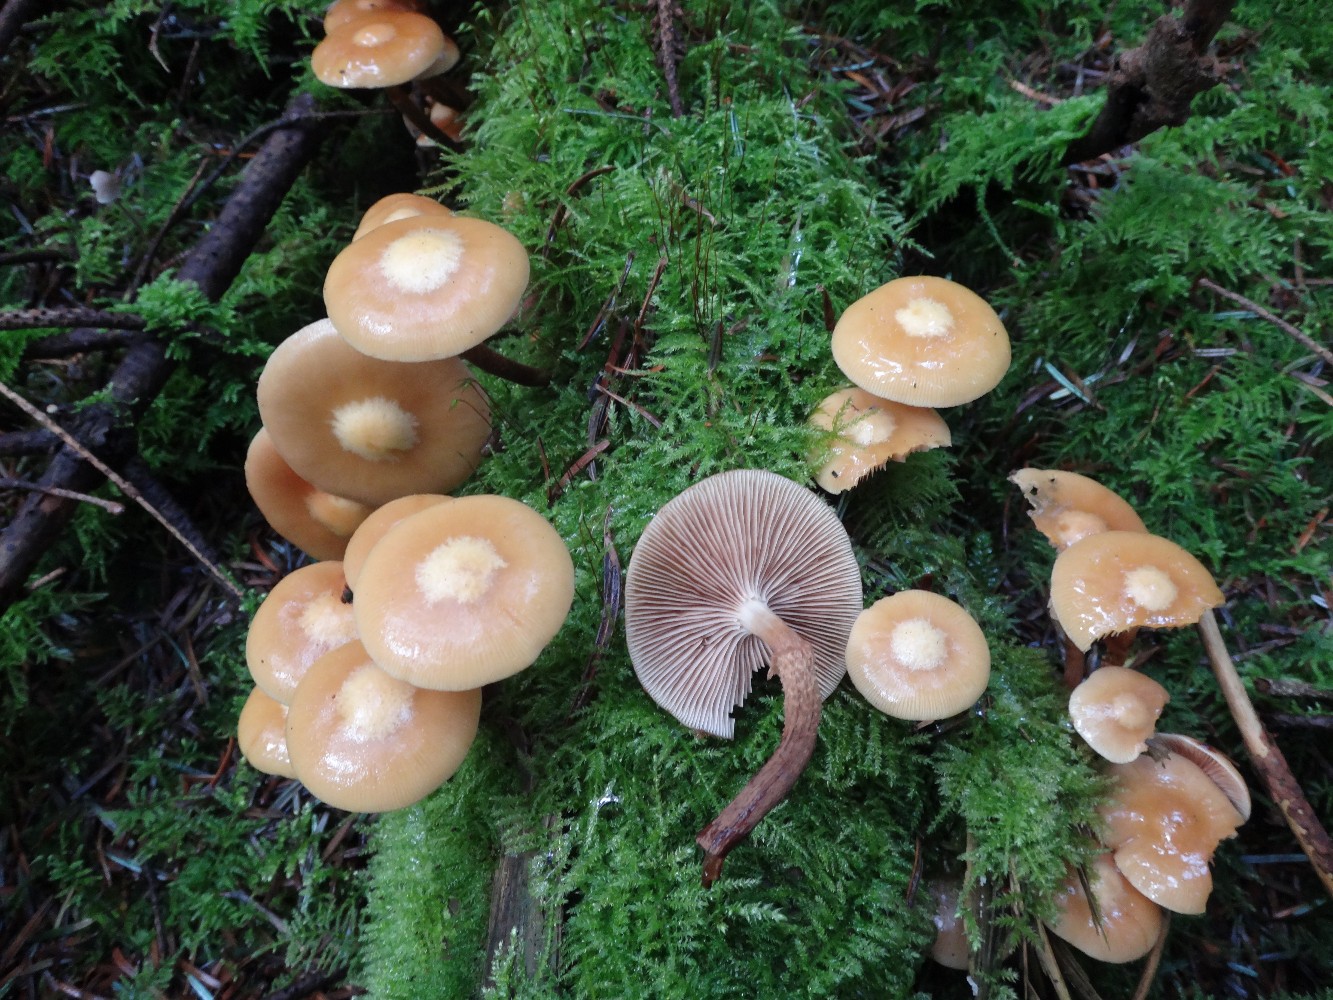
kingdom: Fungi
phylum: Basidiomycota
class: Agaricomycetes
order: Agaricales
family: Strophariaceae
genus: Kuehneromyces
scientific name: Kuehneromyces mutabilis
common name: foranderlig skælhat
